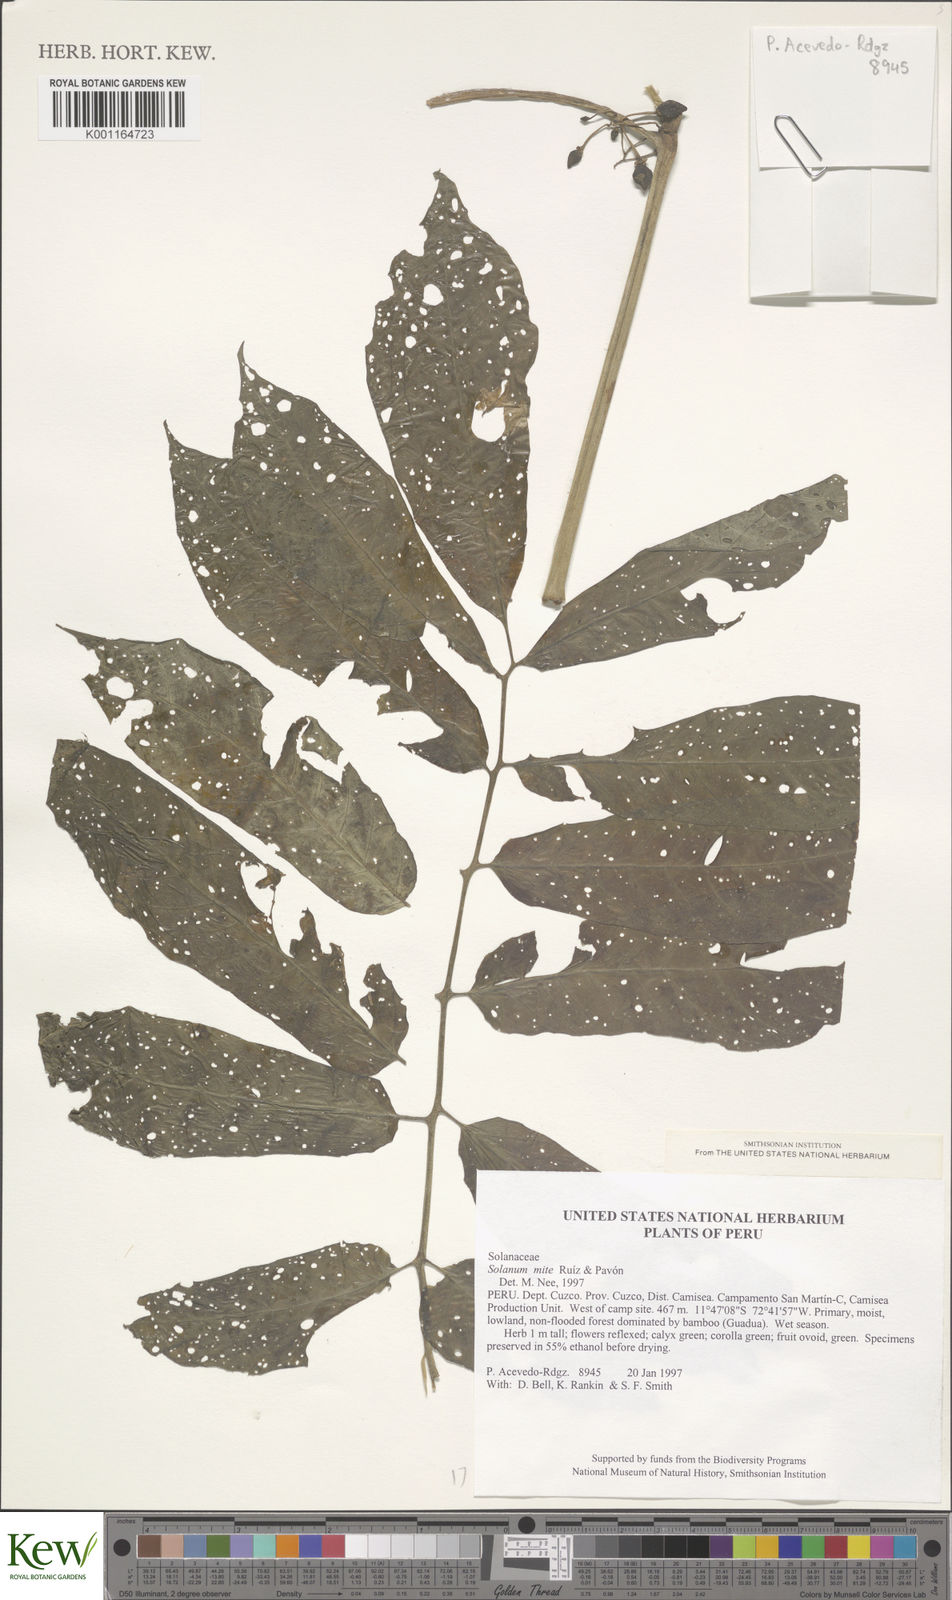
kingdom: Plantae
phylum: Tracheophyta
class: Magnoliopsida
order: Solanales
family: Solanaceae
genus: Solanum
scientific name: Solanum mite
